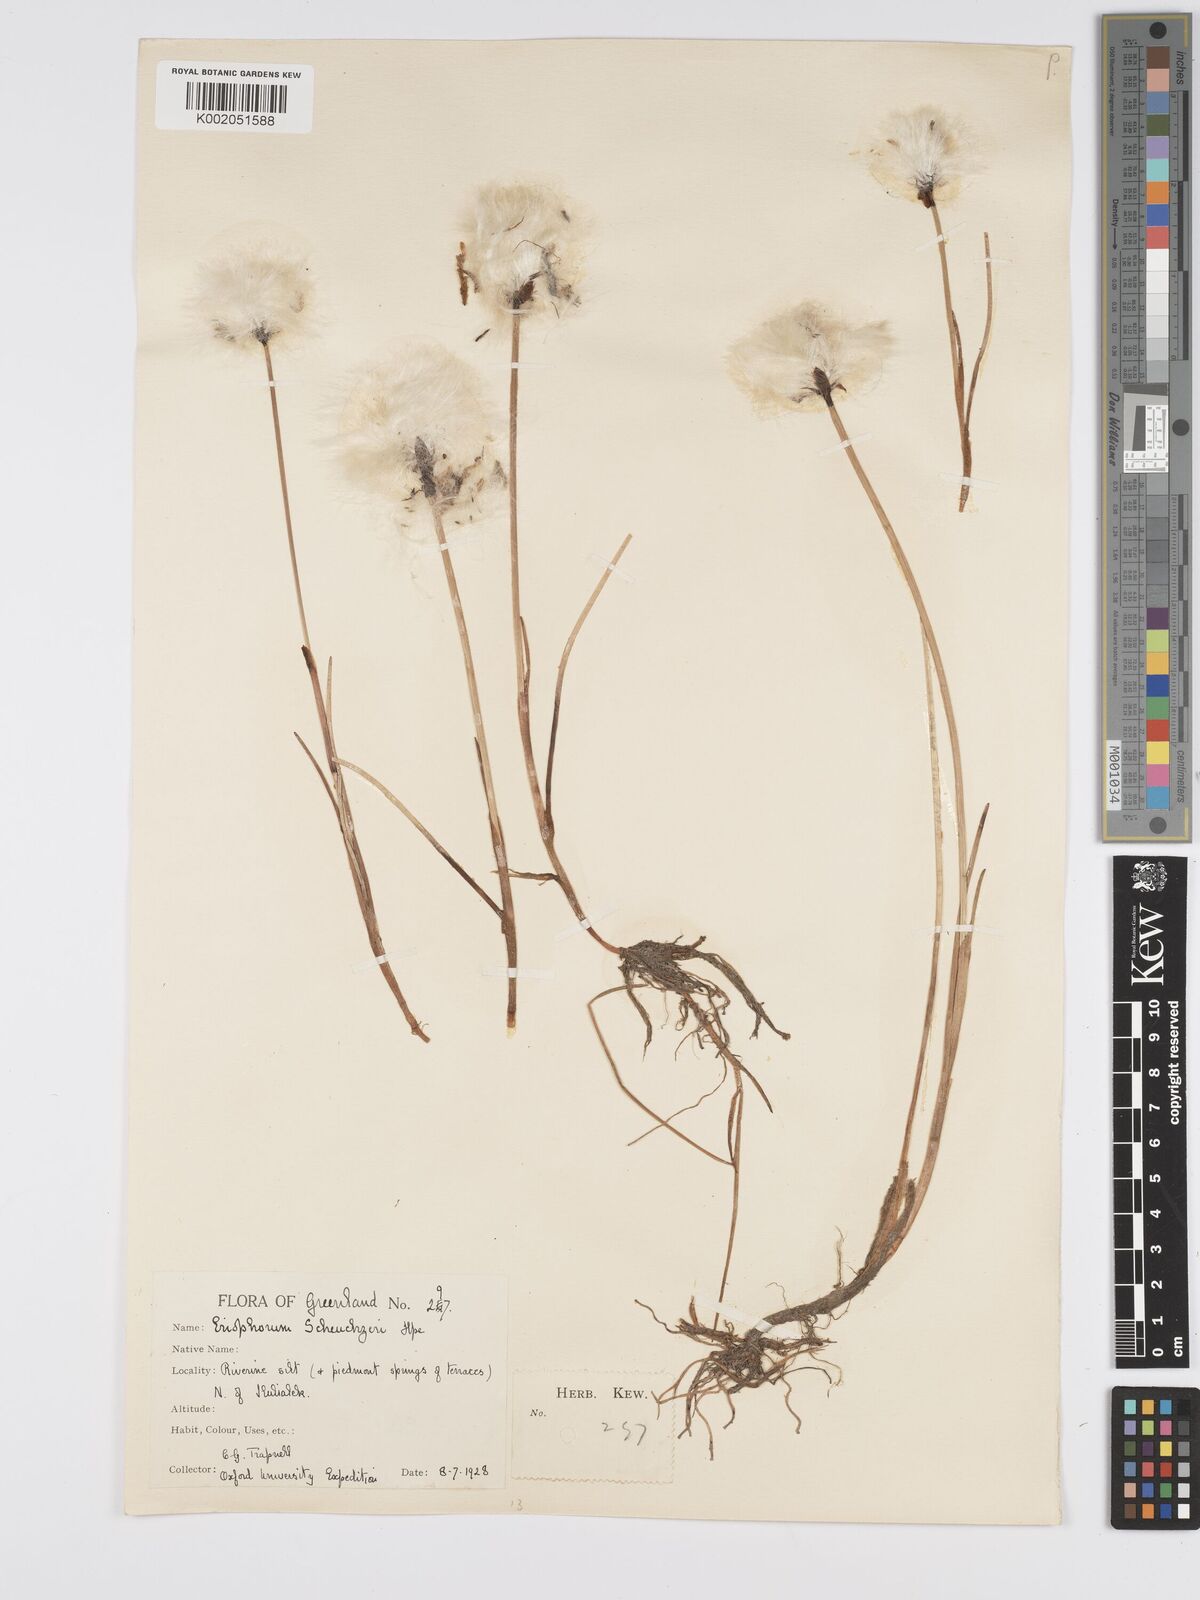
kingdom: Plantae
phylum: Tracheophyta
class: Liliopsida
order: Poales
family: Cyperaceae
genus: Eriophorum
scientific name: Eriophorum scheuchzeri
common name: Scheuchzer's cottongrass
